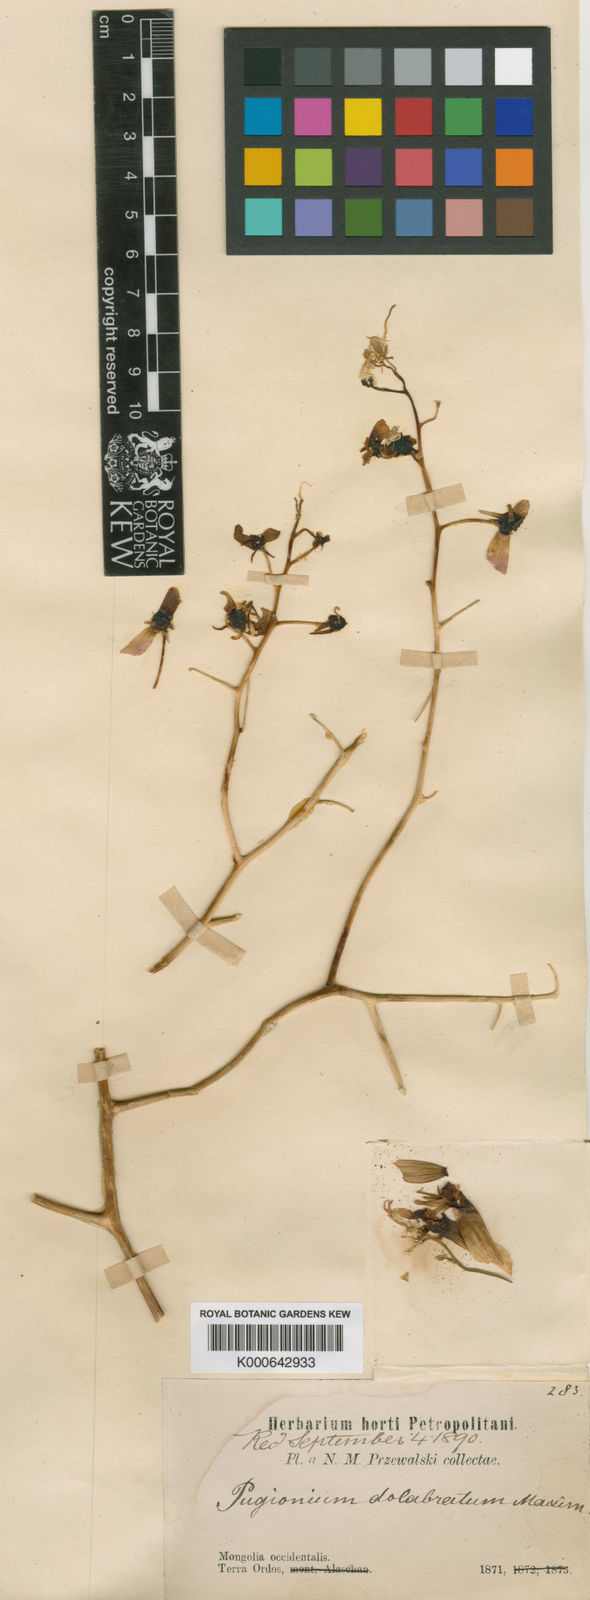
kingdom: Plantae
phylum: Tracheophyta
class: Magnoliopsida
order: Brassicales
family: Brassicaceae
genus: Pugionium
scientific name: Pugionium dolabratum
